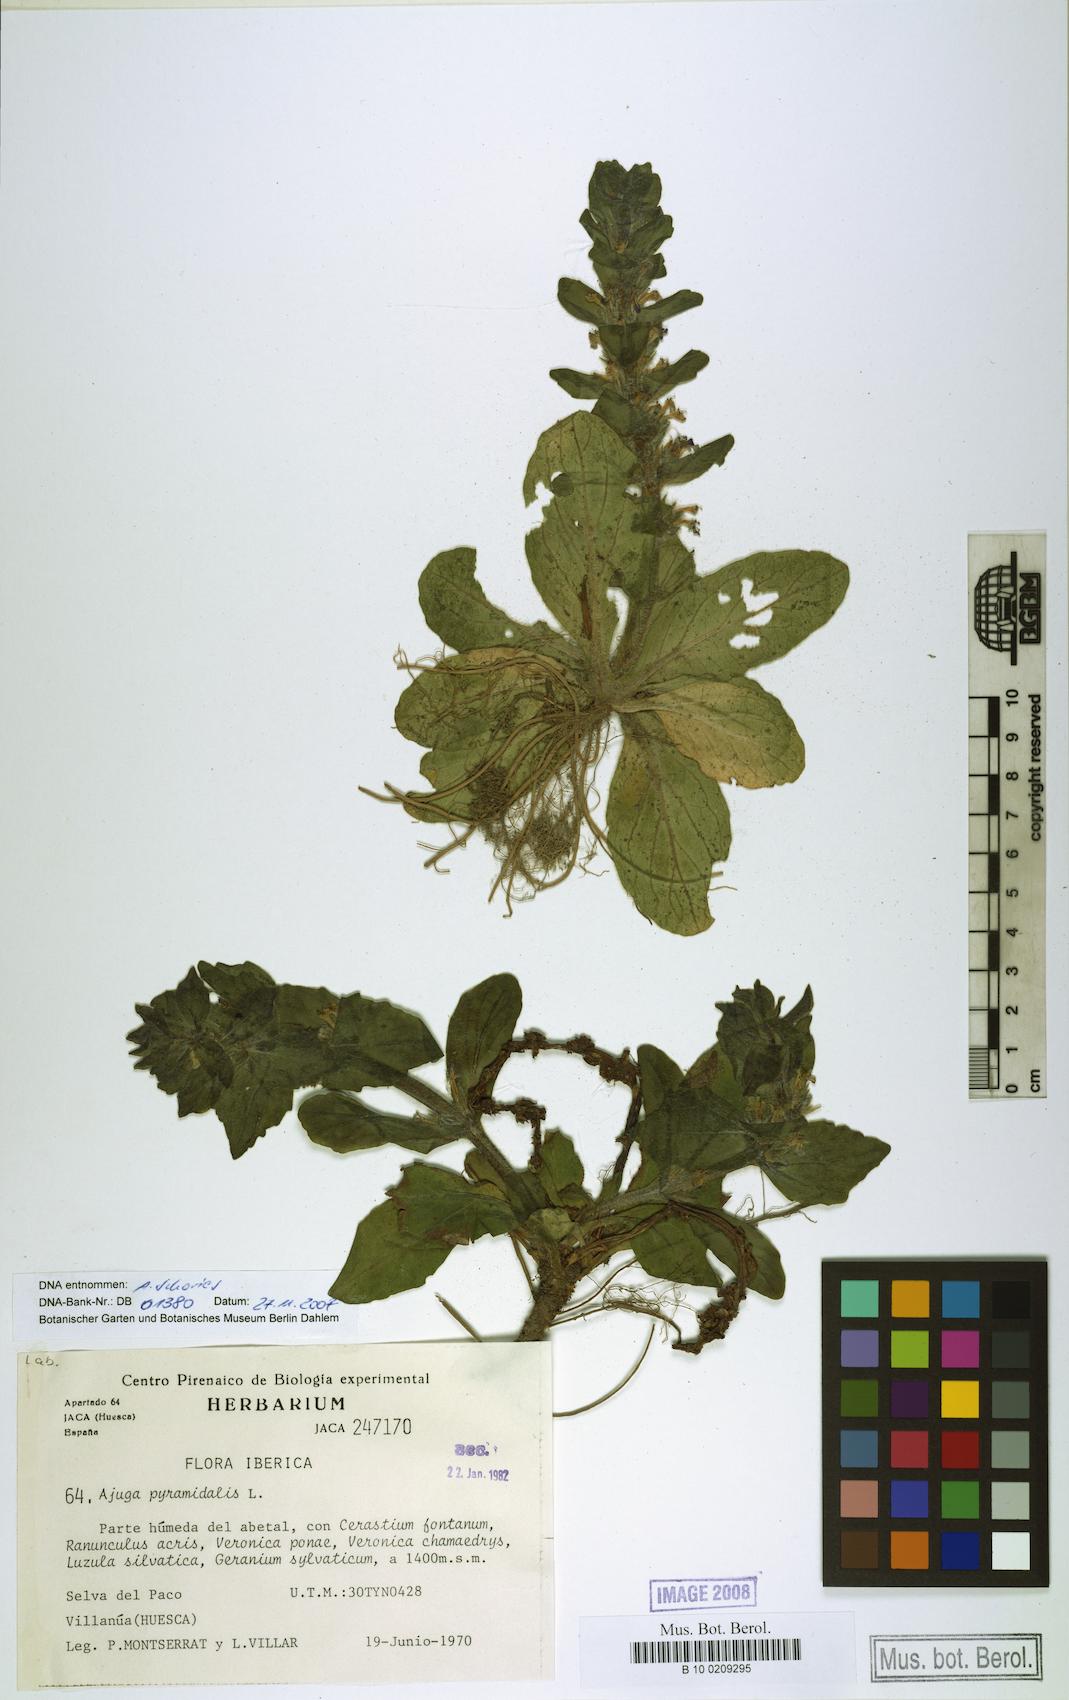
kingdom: Plantae
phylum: Tracheophyta
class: Magnoliopsida
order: Lamiales
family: Lamiaceae
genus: Ajuga
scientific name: Ajuga pyramidalis
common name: Pyramid bugle
